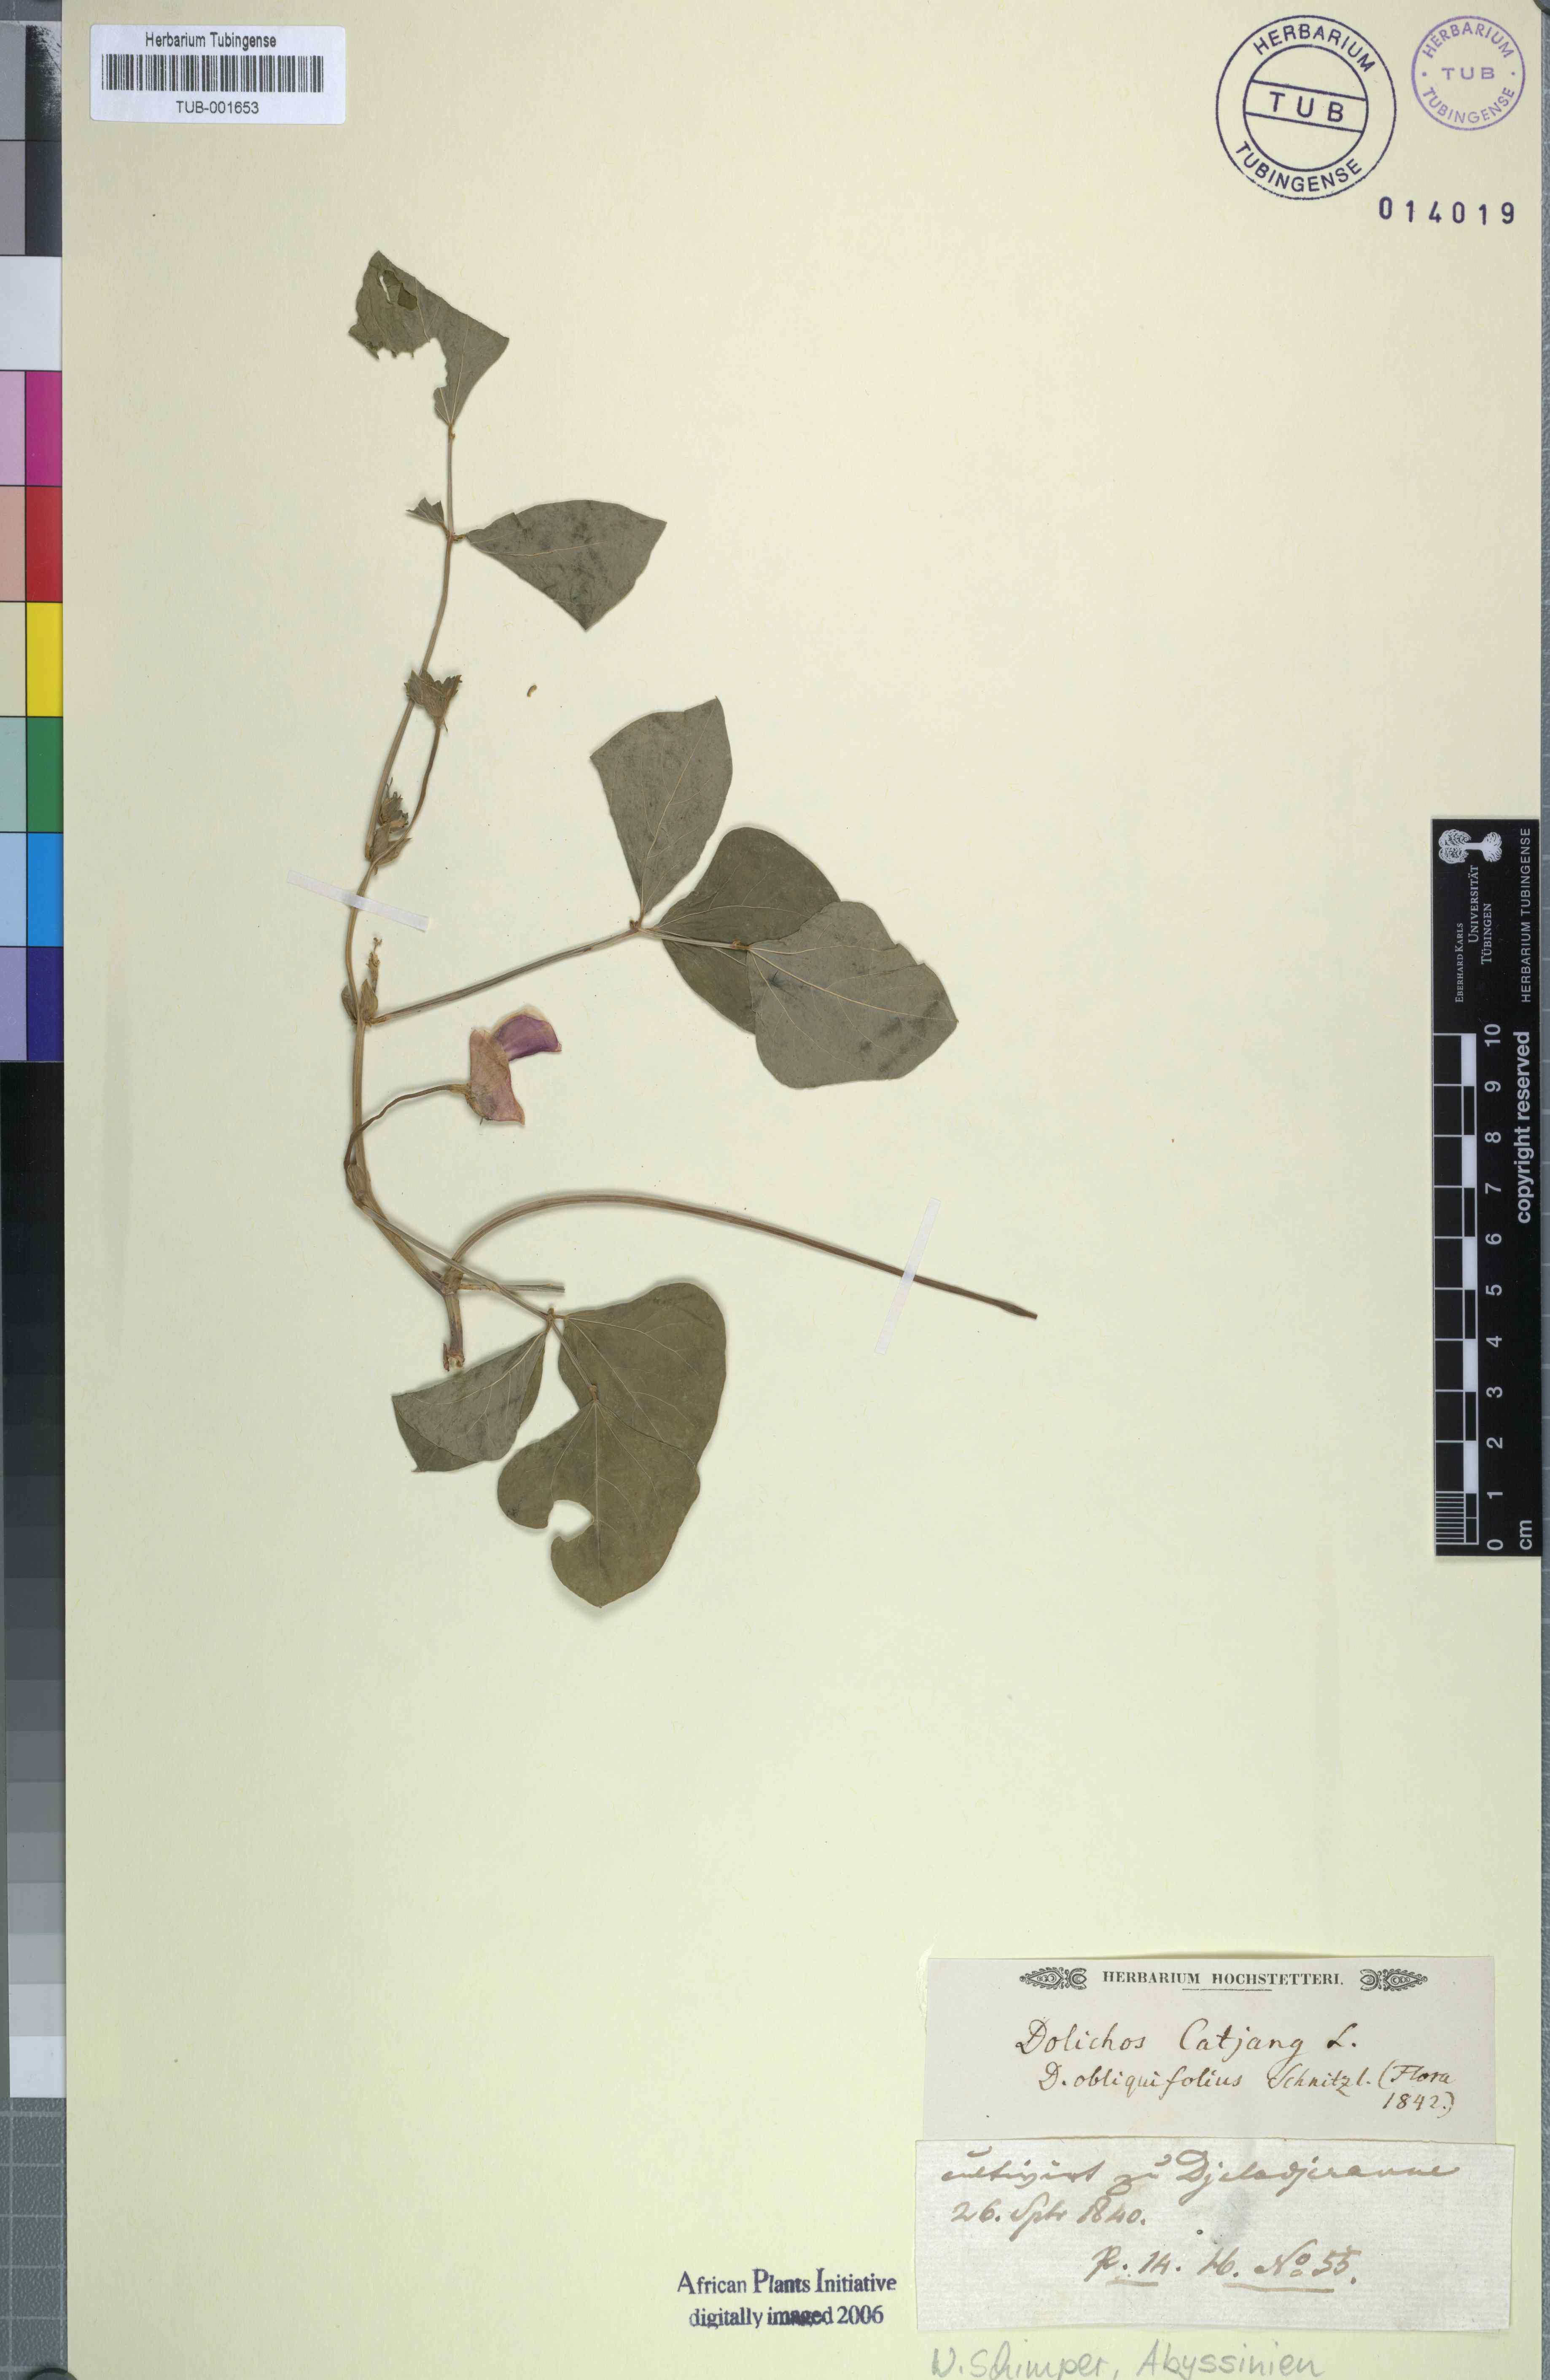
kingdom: Plantae
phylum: Tracheophyta
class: Magnoliopsida
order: Fabales
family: Fabaceae
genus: Vigna
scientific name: Vigna unguiculata
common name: Cowpea
